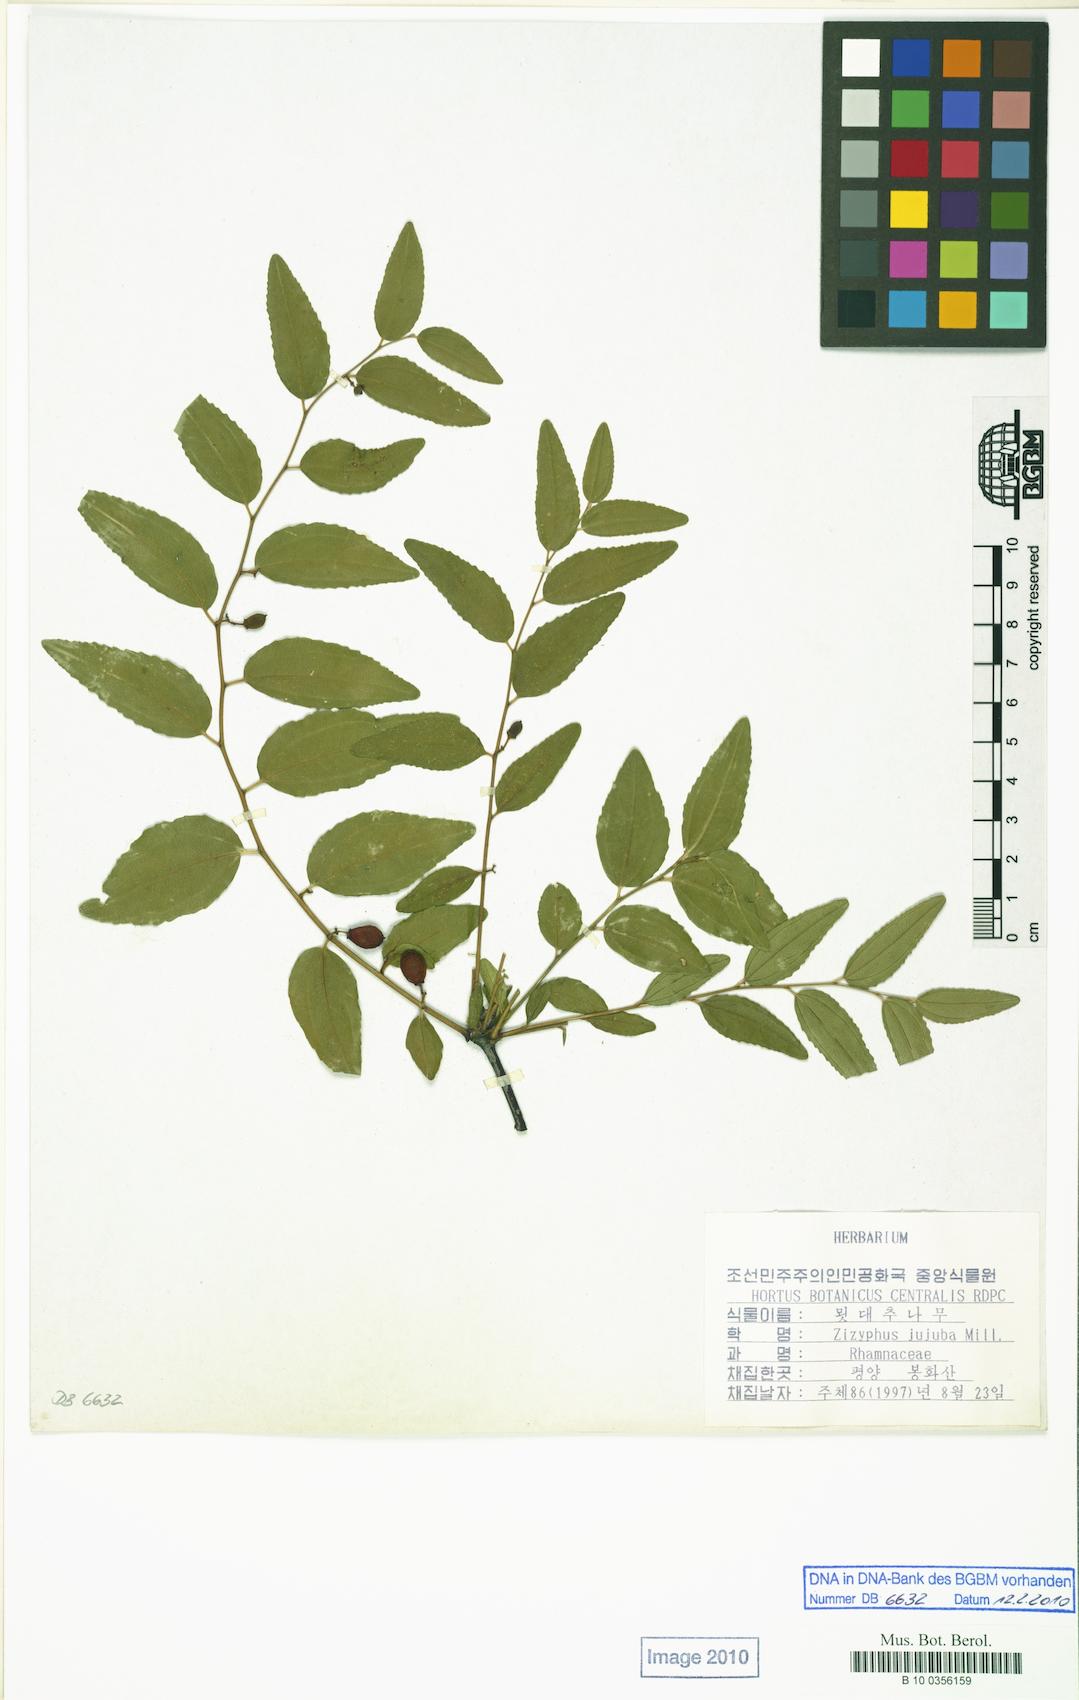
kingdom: Plantae
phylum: Tracheophyta
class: Magnoliopsida
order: Rosales
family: Rhamnaceae
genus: Ziziphus
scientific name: Ziziphus jujuba
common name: Jujube red date
